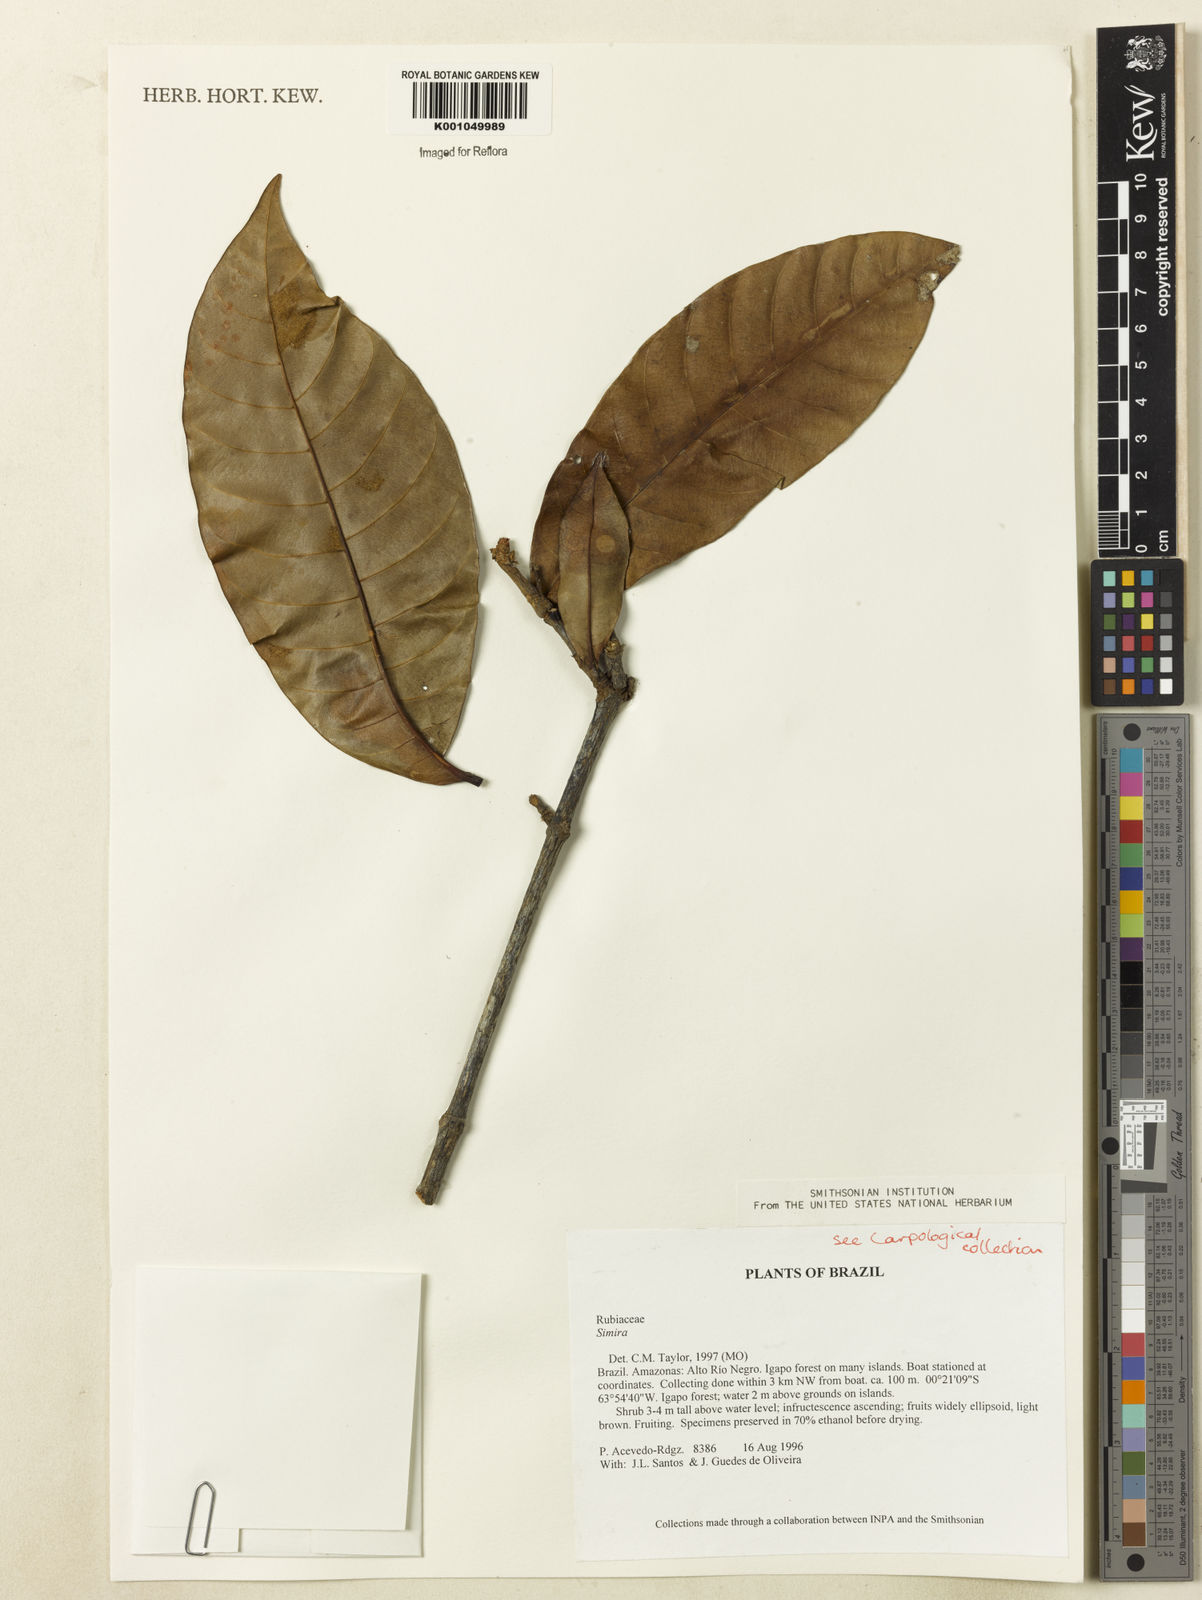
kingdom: Plantae
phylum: Tracheophyta
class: Magnoliopsida
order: Gentianales
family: Rubiaceae
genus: Simira
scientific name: Simira
